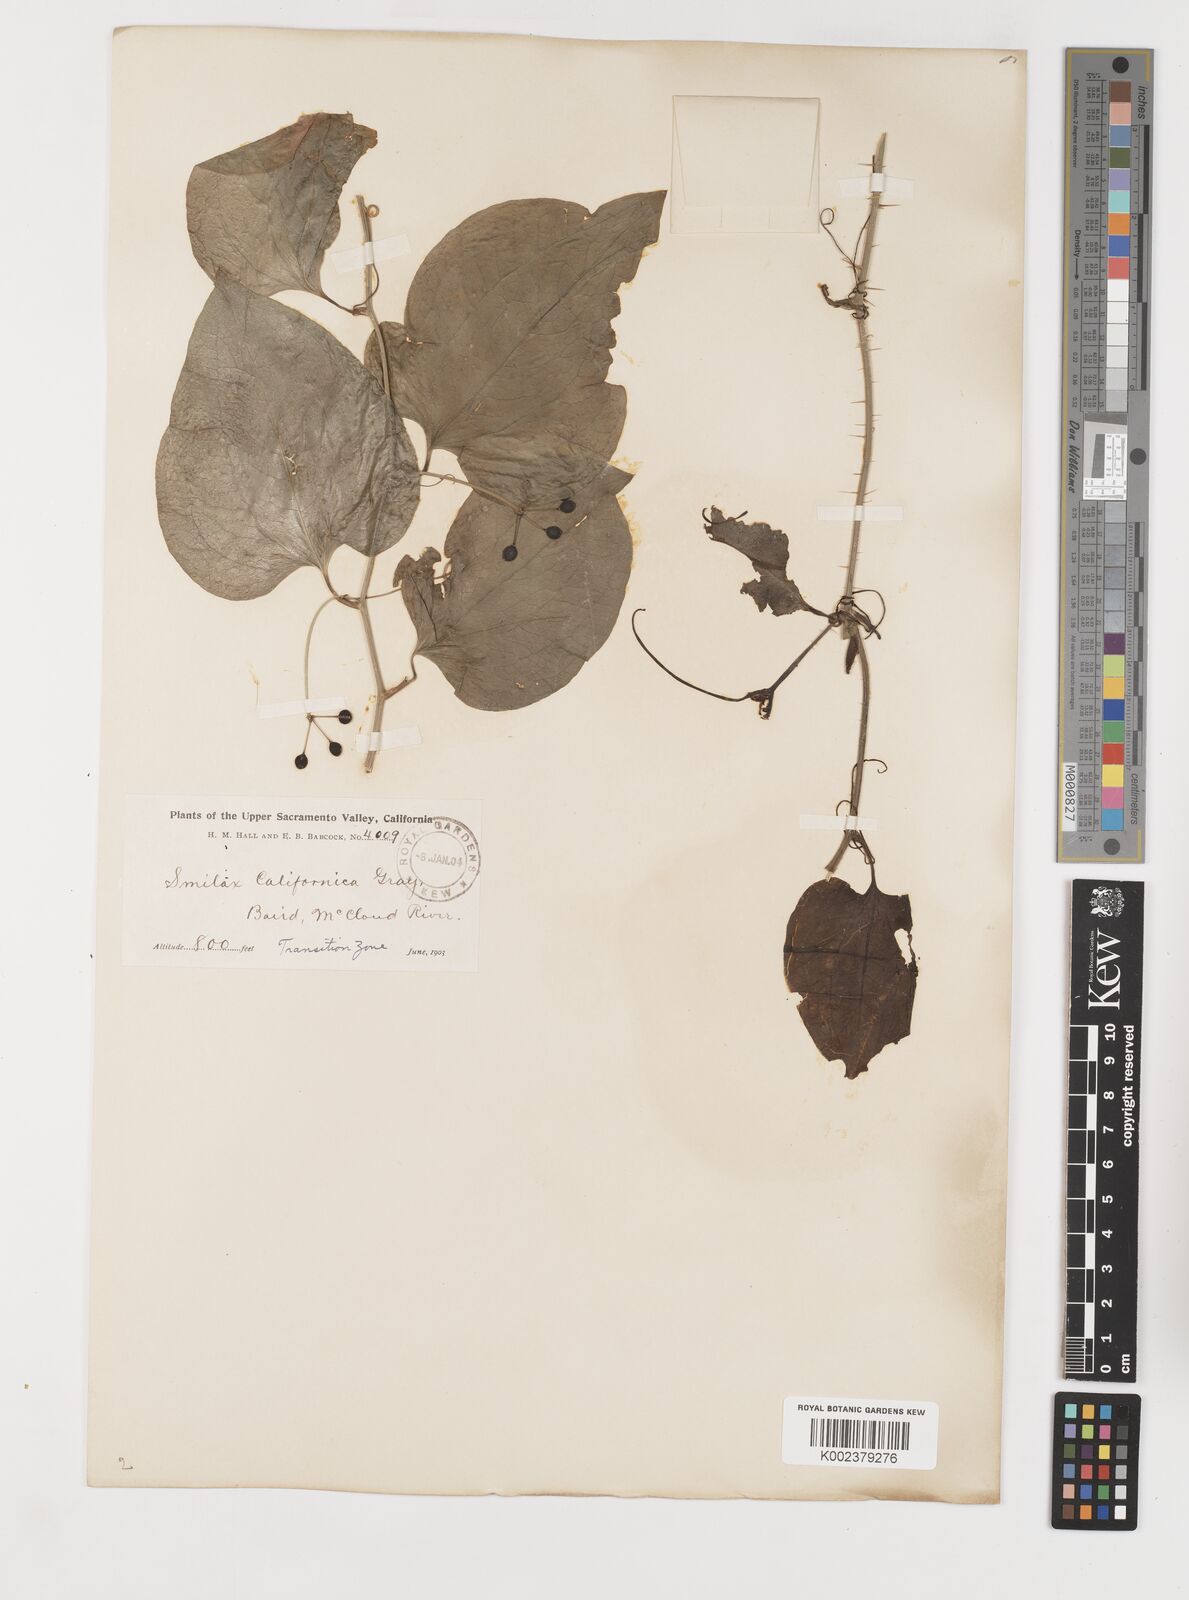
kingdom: Plantae
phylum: Tracheophyta
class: Liliopsida
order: Liliales
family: Smilacaceae
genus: Smilax
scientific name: Smilax californica
